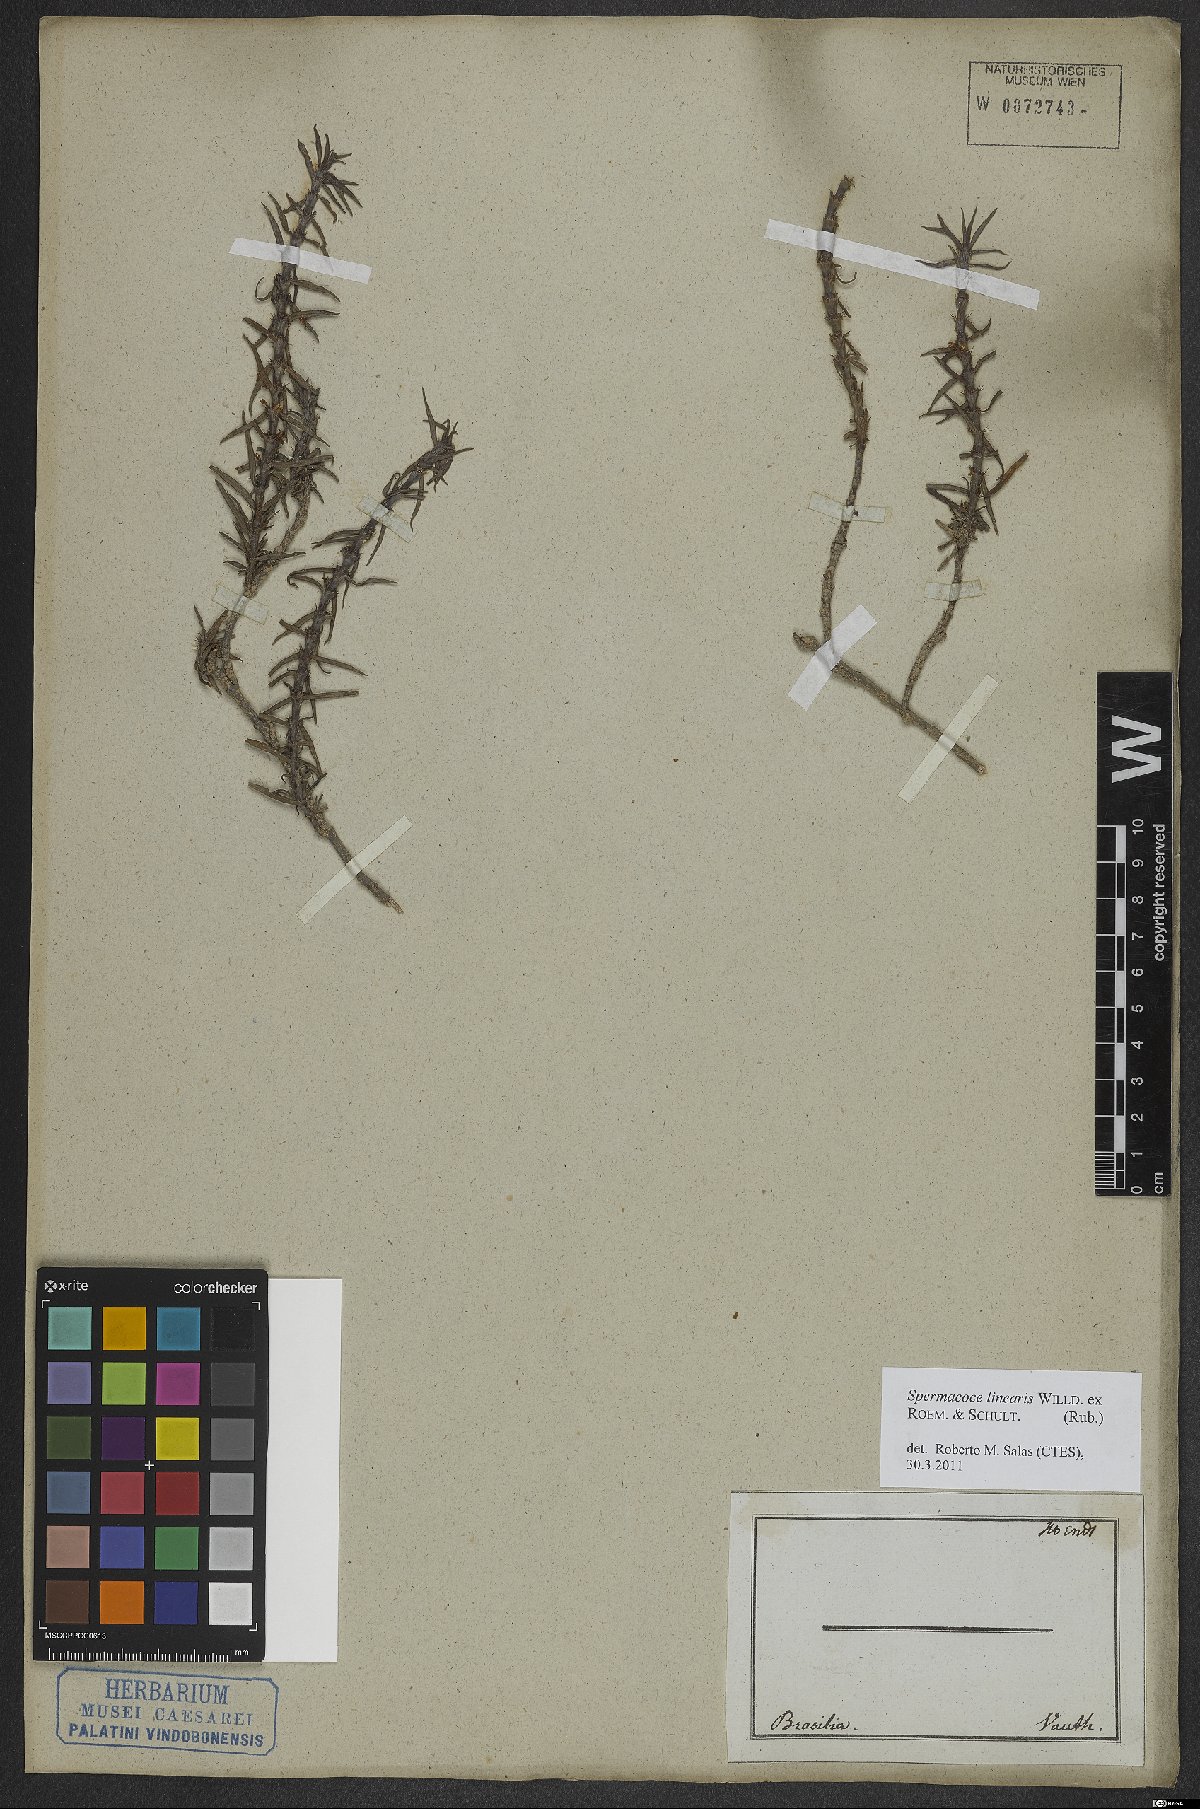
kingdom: Plantae
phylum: Tracheophyta
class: Magnoliopsida
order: Gentianales
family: Rubiaceae
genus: Spermacoce
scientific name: Spermacoce hyssopifolia
